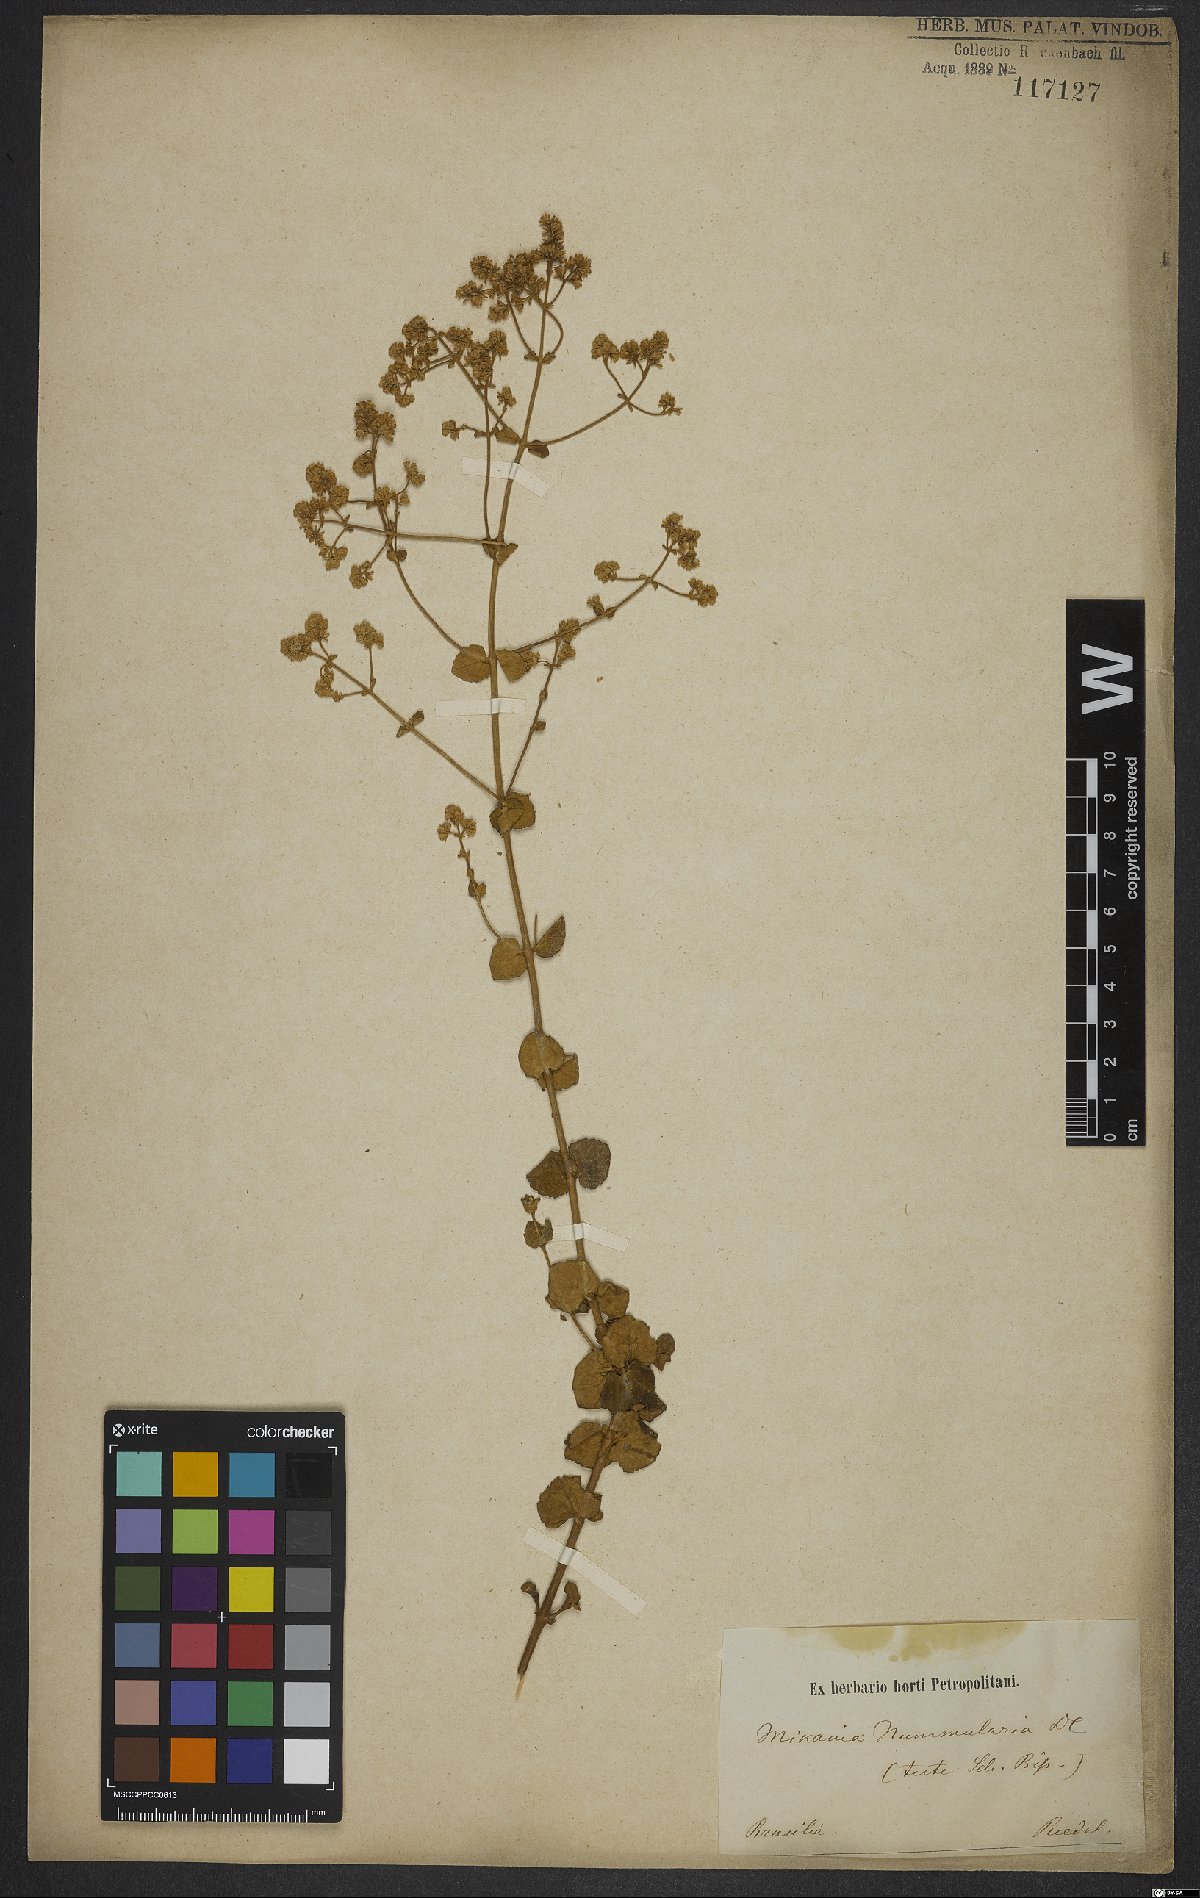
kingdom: Plantae
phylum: Tracheophyta
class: Magnoliopsida
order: Asterales
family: Asteraceae
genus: Mikania
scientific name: Mikania nummularia
